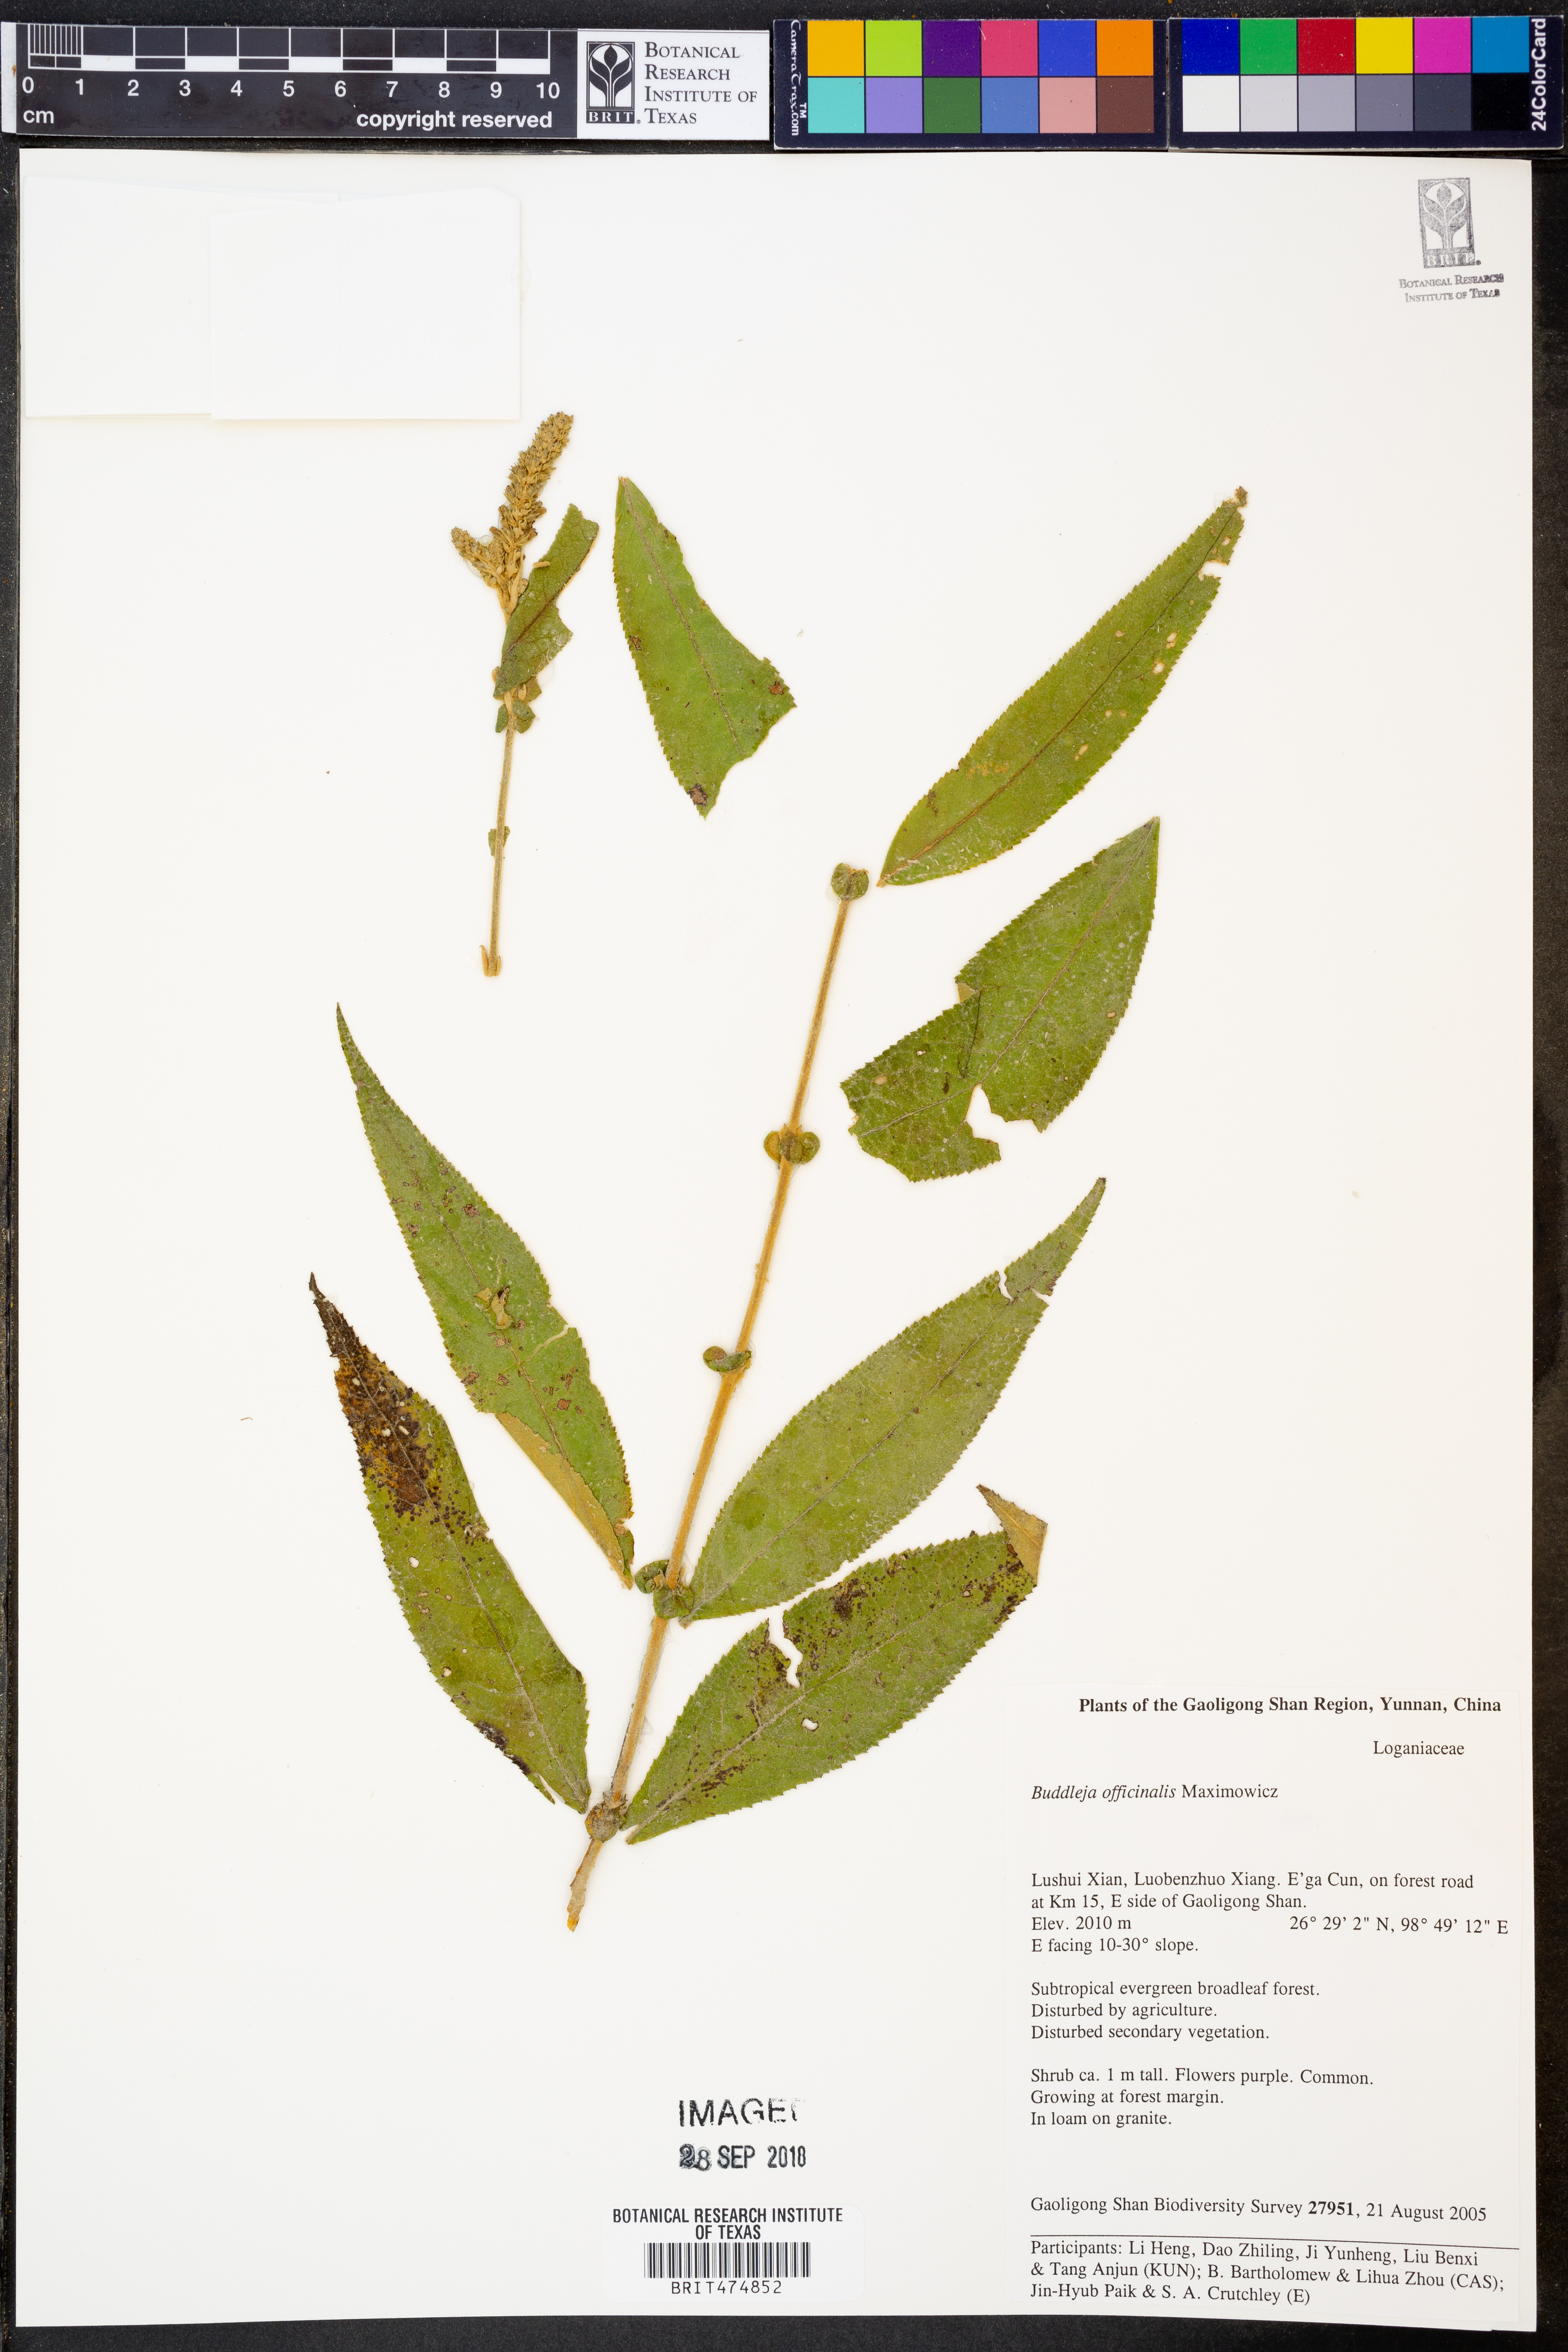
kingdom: Plantae
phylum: Tracheophyta
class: Magnoliopsida
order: Lamiales
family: Scrophulariaceae
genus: Buddleja
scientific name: Buddleja fallowiana
